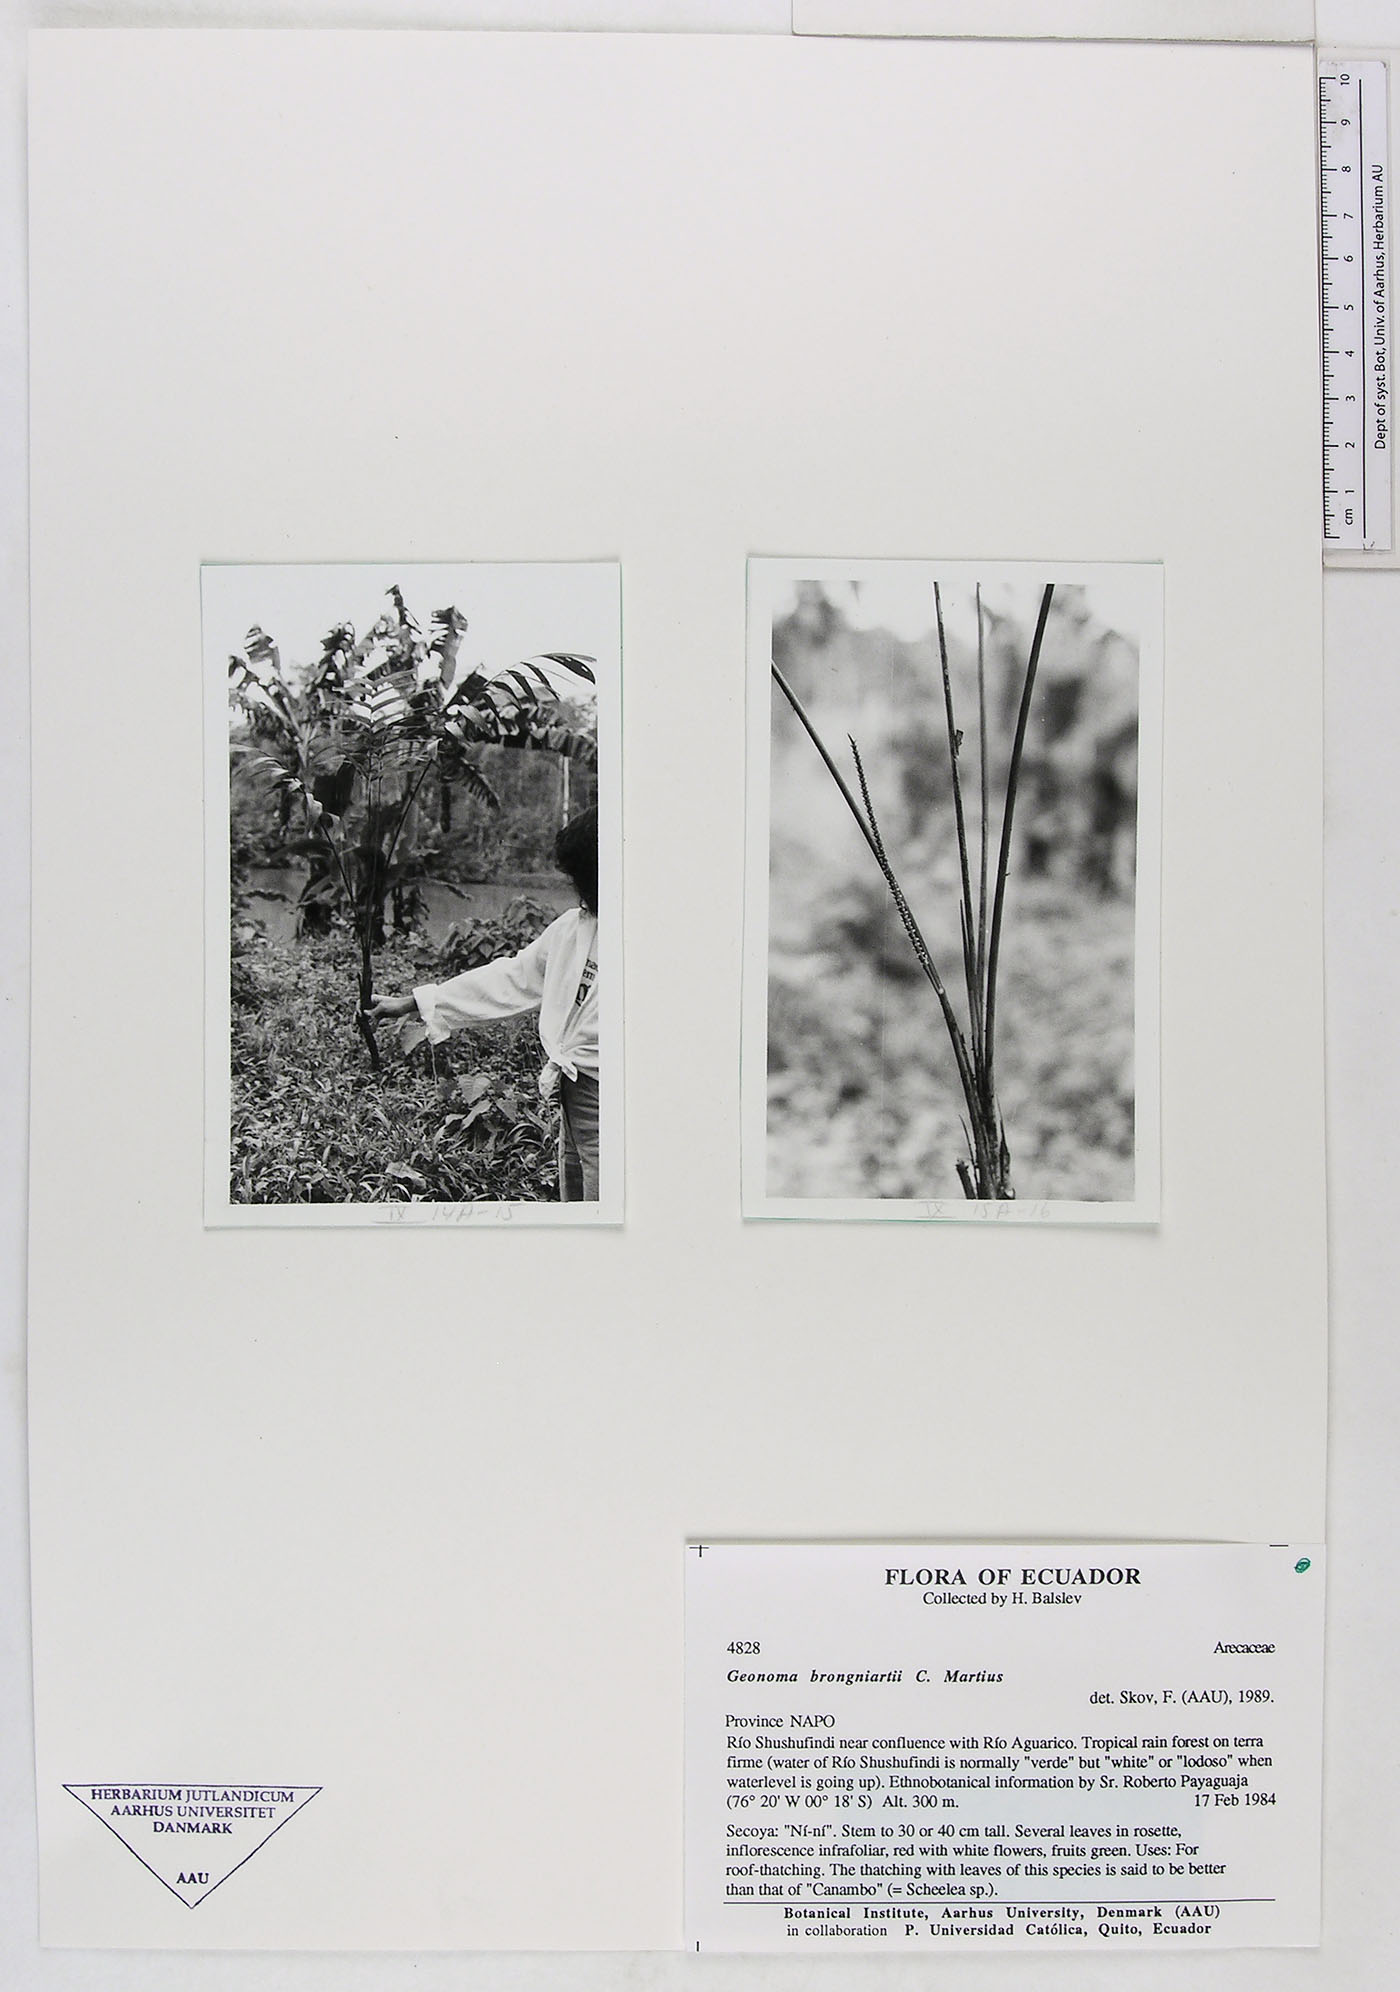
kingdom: Plantae
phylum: Tracheophyta
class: Liliopsida
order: Arecales
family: Arecaceae
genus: Geonoma
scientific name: Geonoma brongniartii
